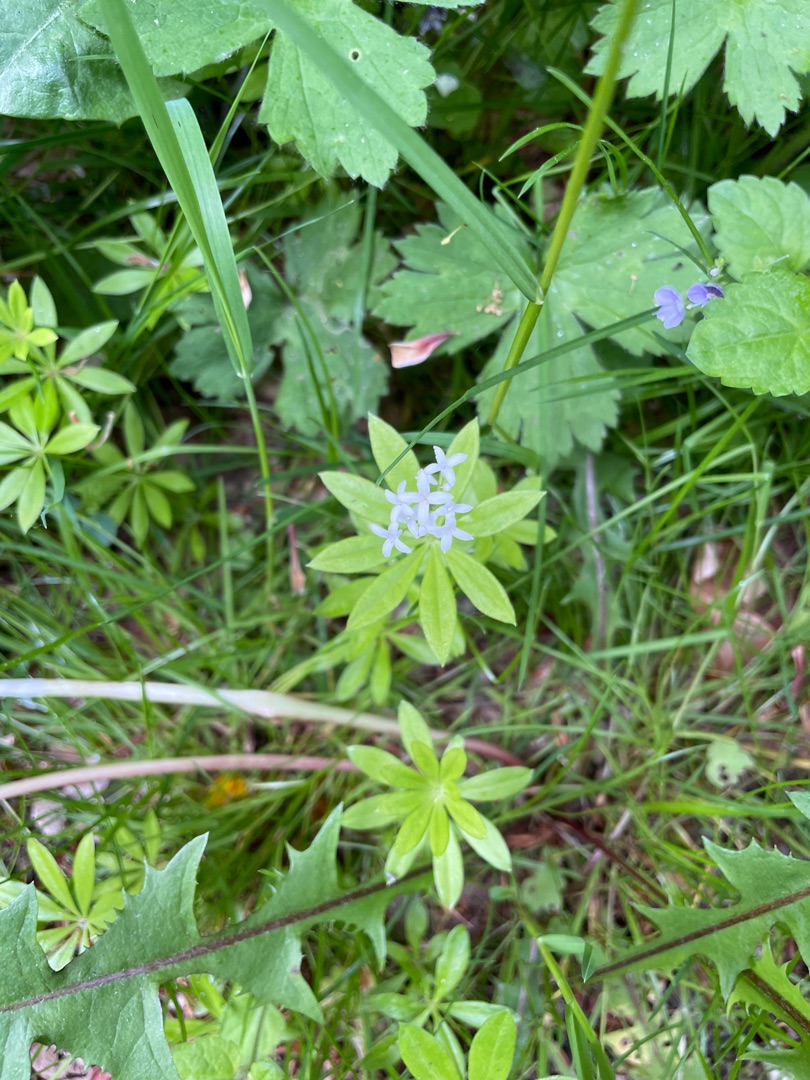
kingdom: Plantae
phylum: Tracheophyta
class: Magnoliopsida
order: Gentianales
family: Rubiaceae
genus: Galium
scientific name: Galium odoratum
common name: Skovmærke
